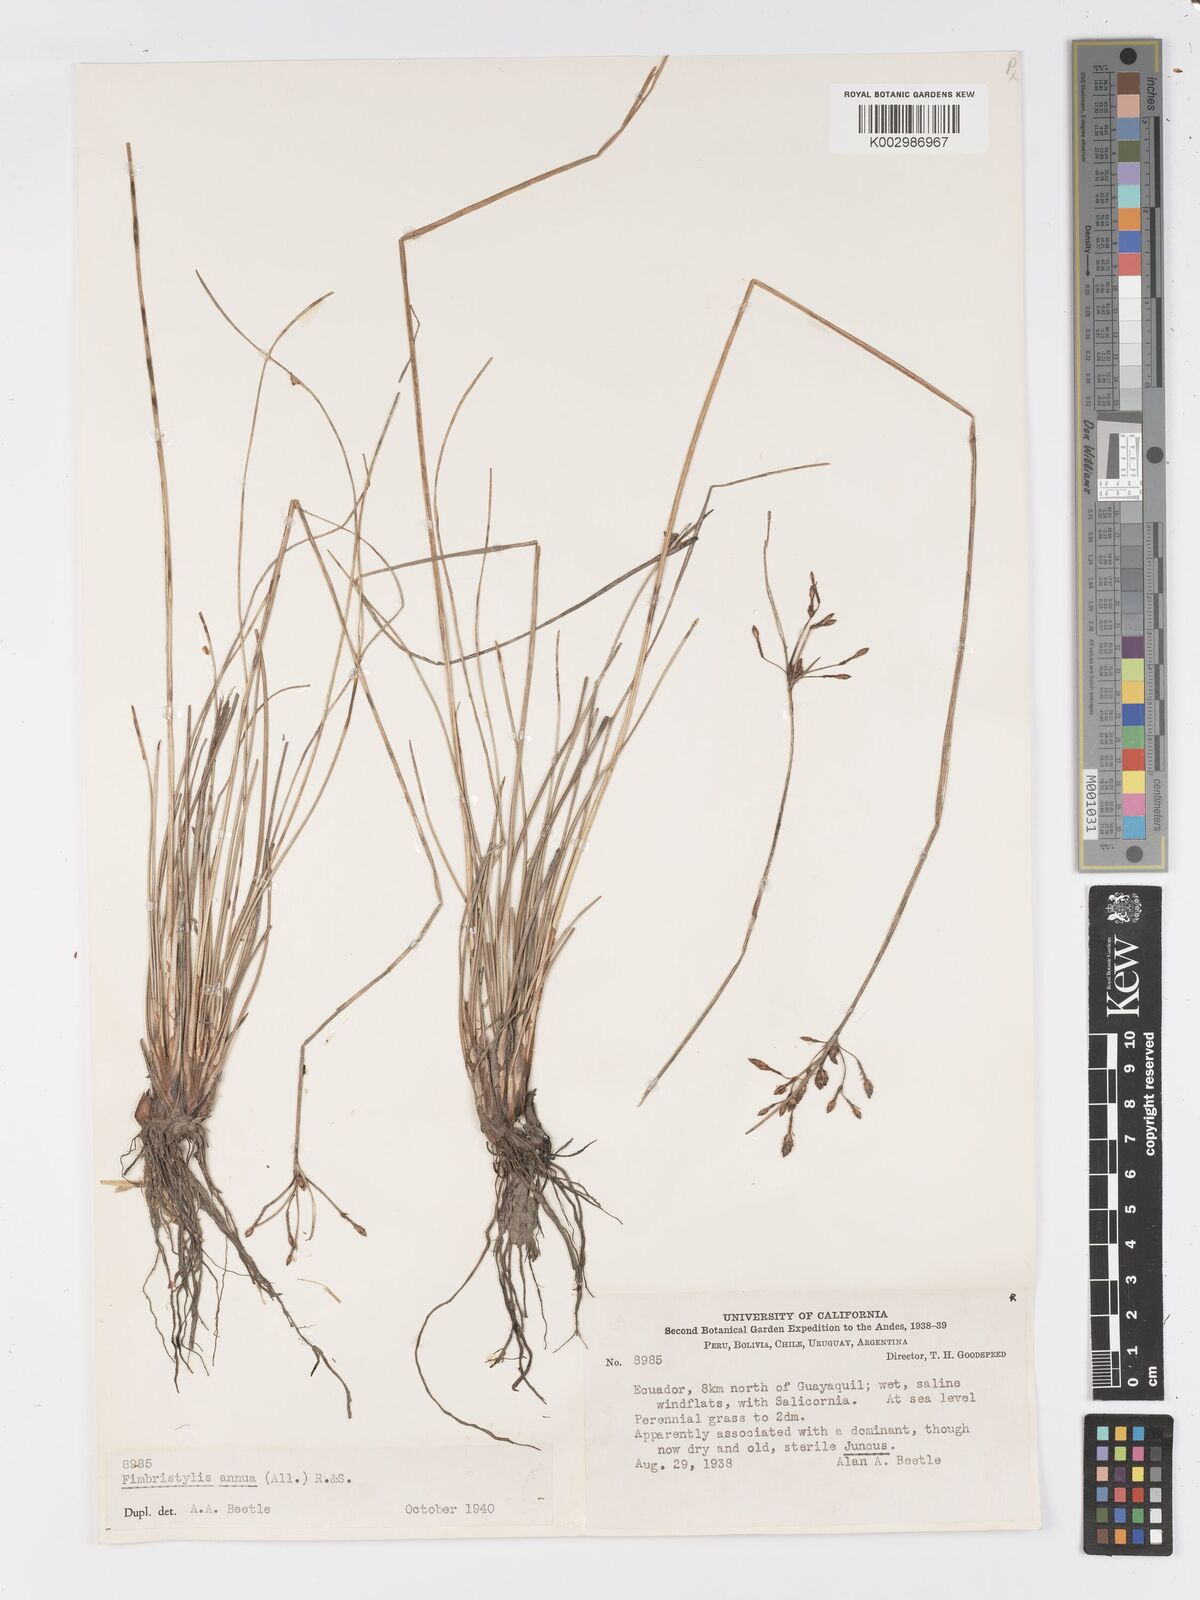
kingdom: Plantae
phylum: Tracheophyta
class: Liliopsida
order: Poales
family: Cyperaceae
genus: Fimbristylis
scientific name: Fimbristylis dichotoma
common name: Forked fimbry
